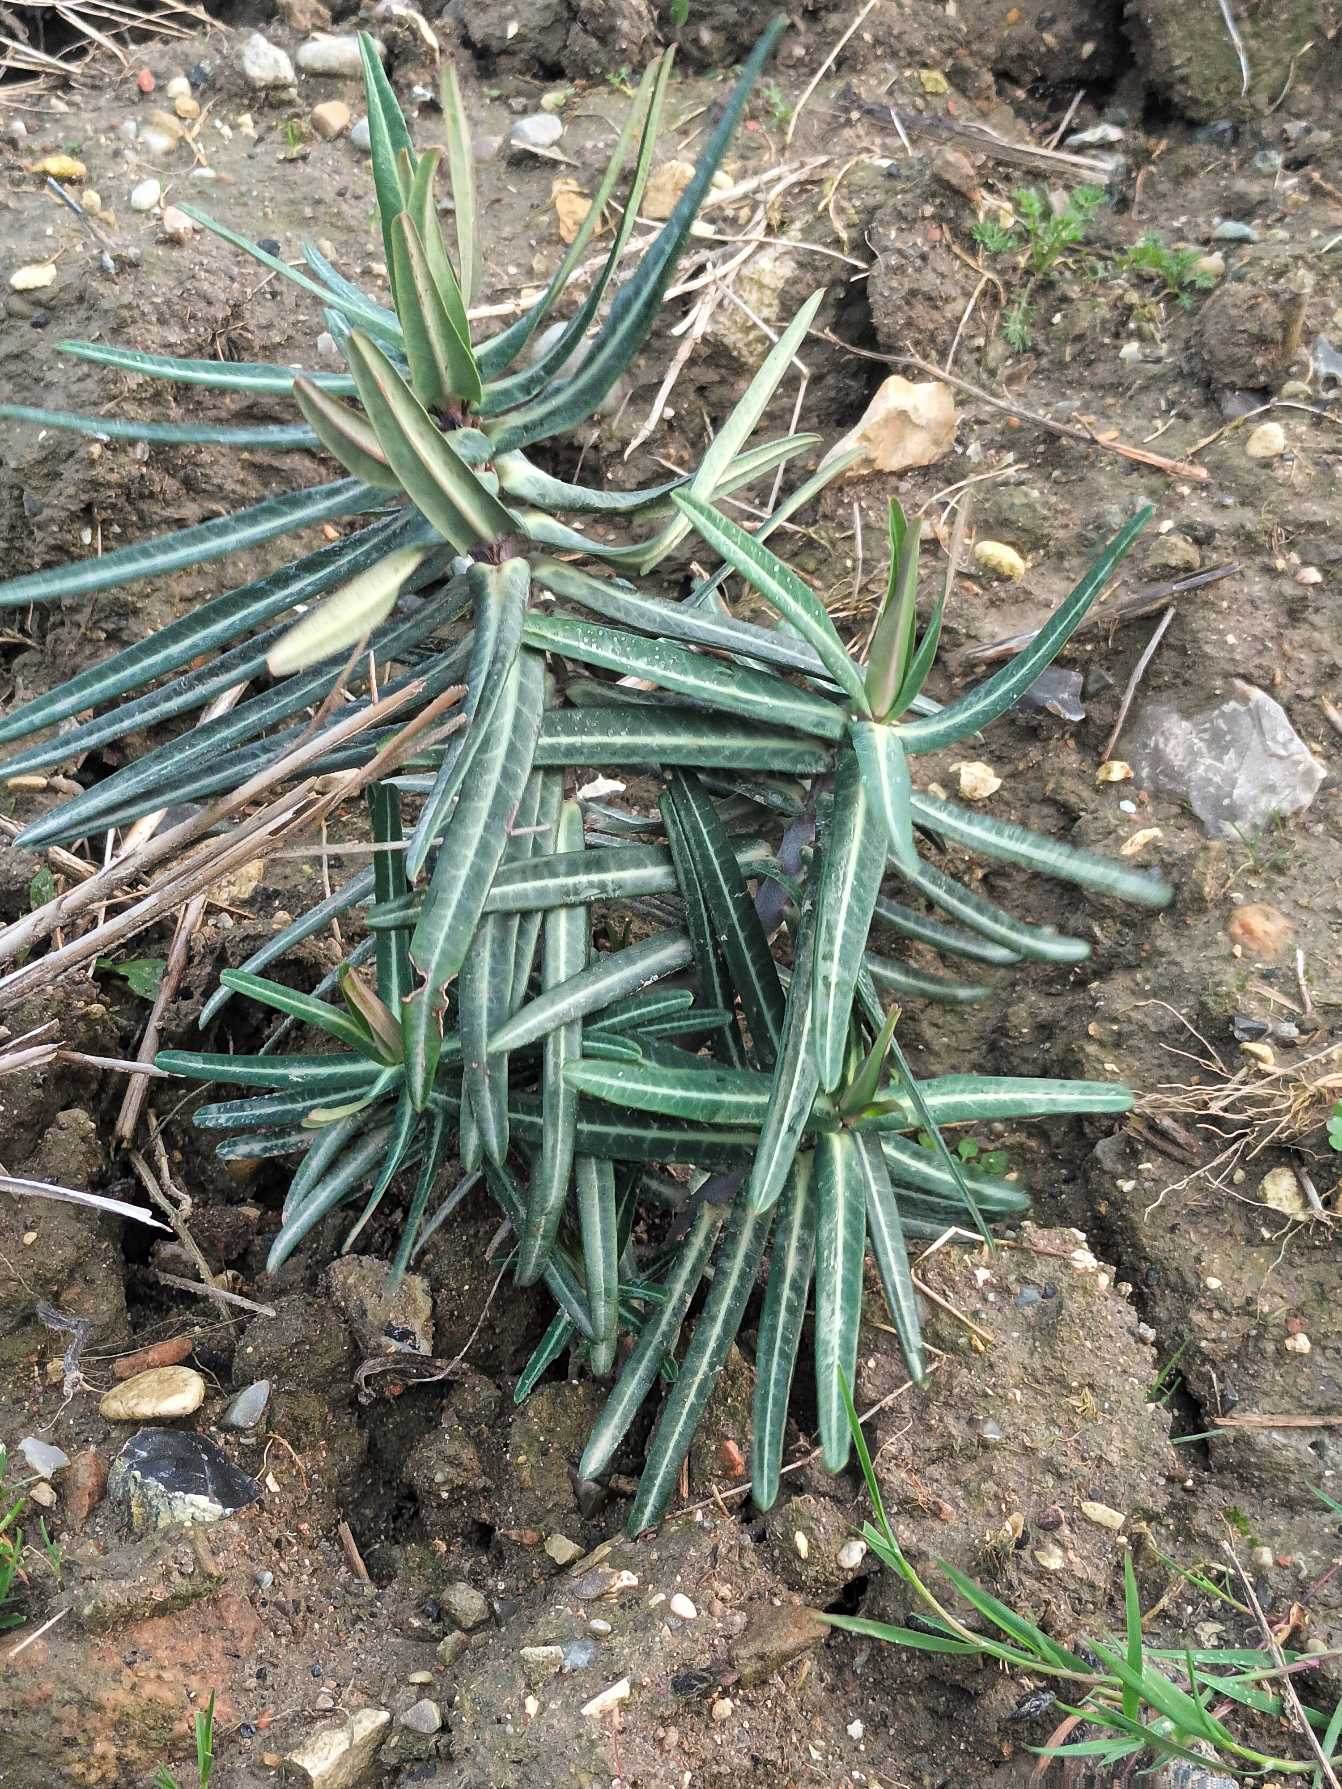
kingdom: Plantae
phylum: Tracheophyta
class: Magnoliopsida
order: Malpighiales
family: Euphorbiaceae
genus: Euphorbia
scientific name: Euphorbia lathyris
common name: Kors-vortemælk
